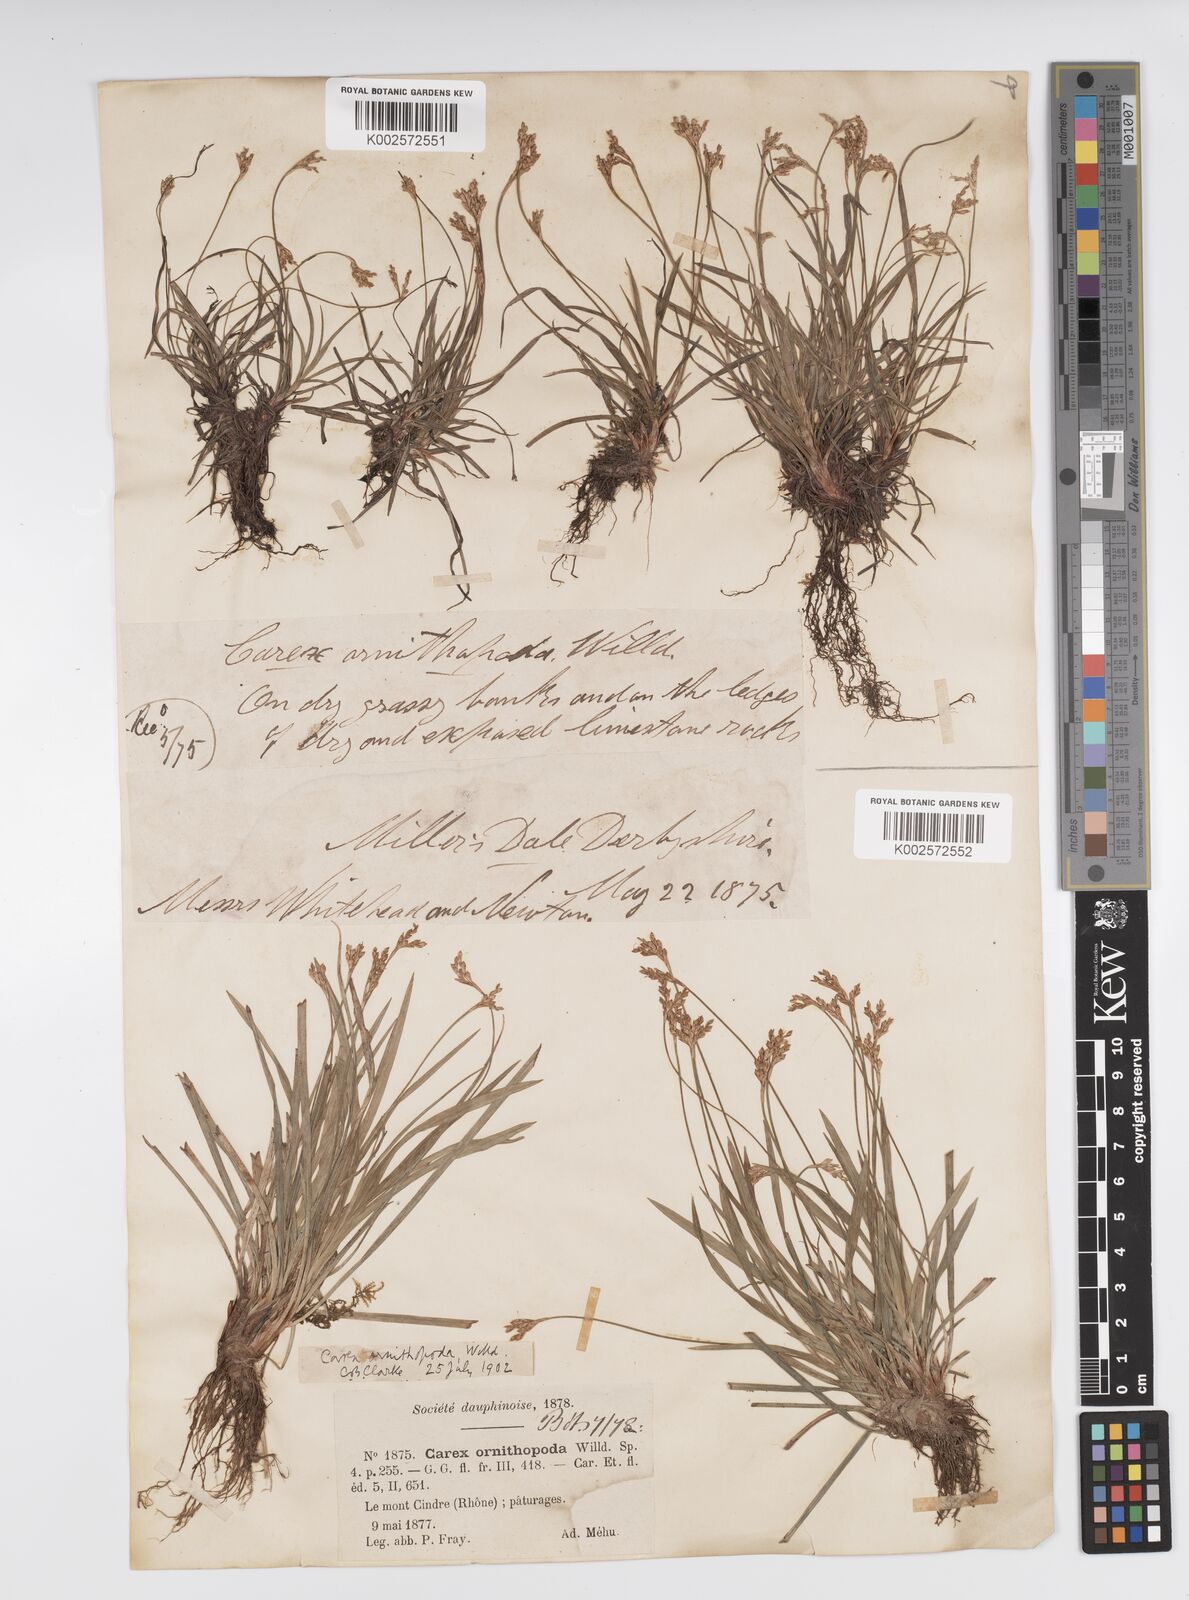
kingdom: Plantae
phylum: Tracheophyta
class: Liliopsida
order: Poales
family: Cyperaceae
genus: Carex
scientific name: Carex ornithopoda
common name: Bird's-foot sedge
